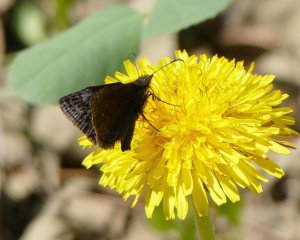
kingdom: Animalia
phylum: Arthropoda
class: Insecta
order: Lepidoptera
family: Hesperiidae
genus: Erynnis
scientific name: Erynnis icelus
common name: Dreamy Duskywing
